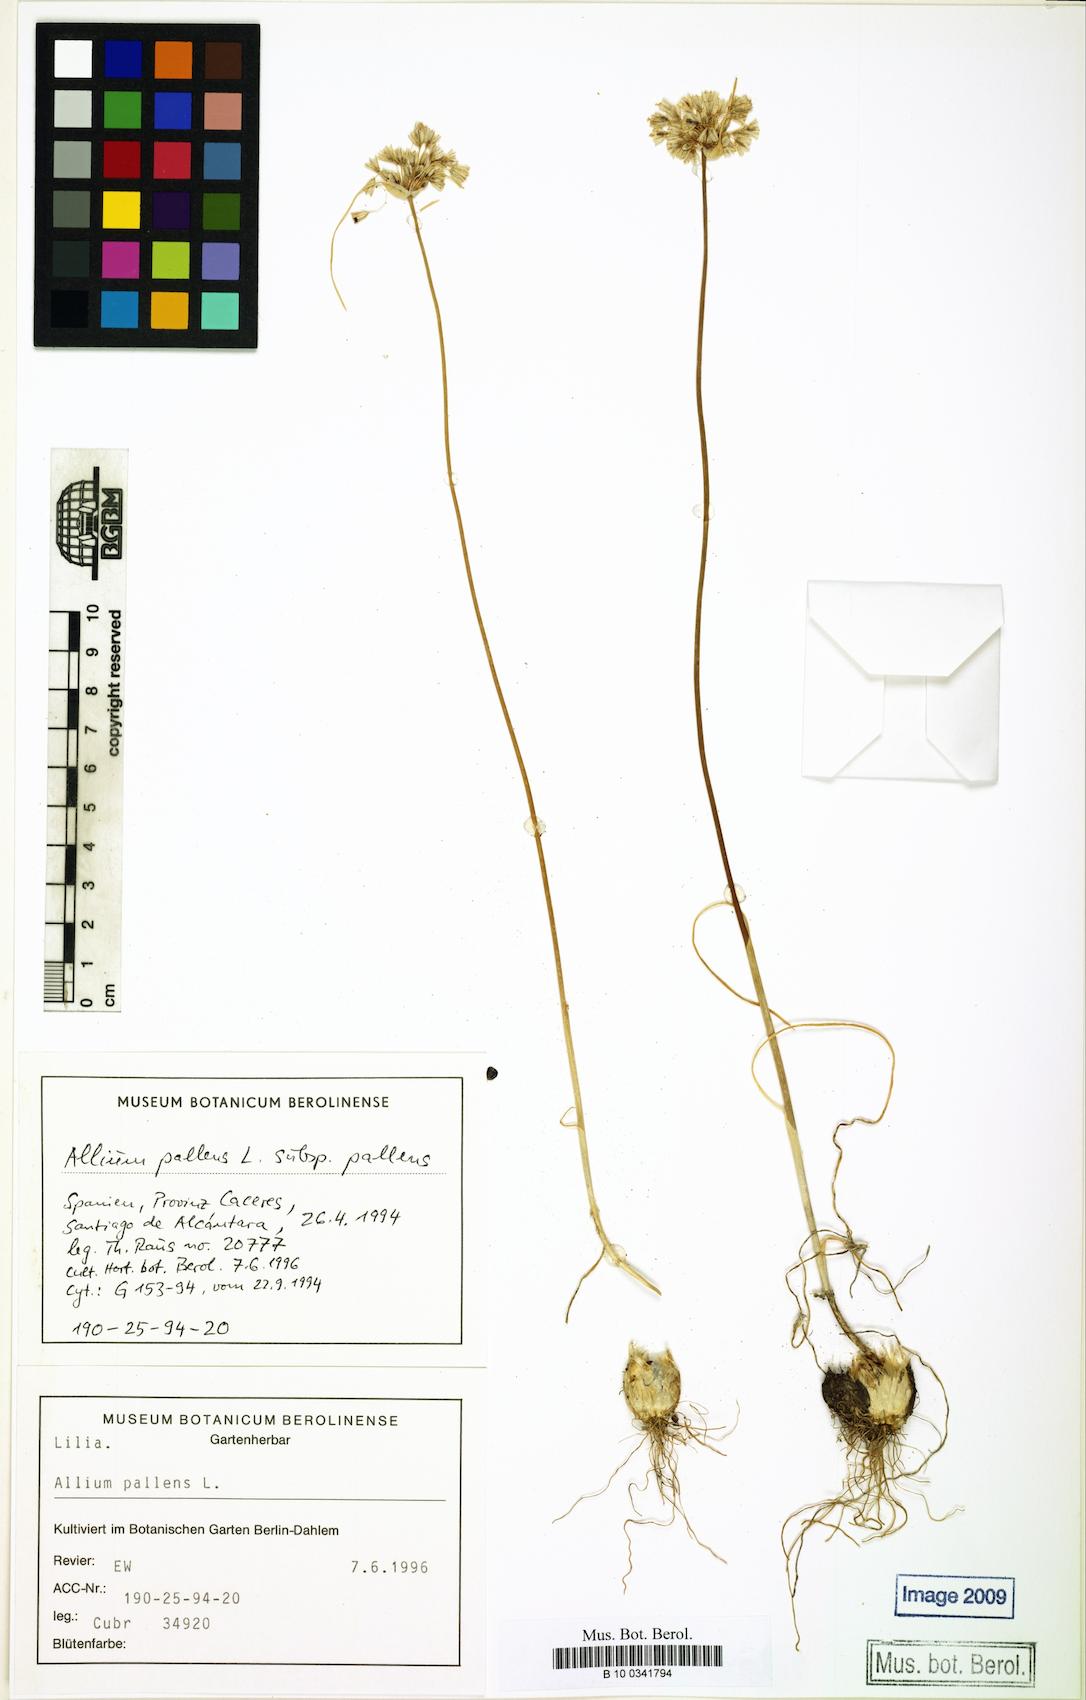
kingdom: Plantae
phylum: Tracheophyta
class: Liliopsida
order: Asparagales
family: Amaryllidaceae
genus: Allium
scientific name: Allium pallens
